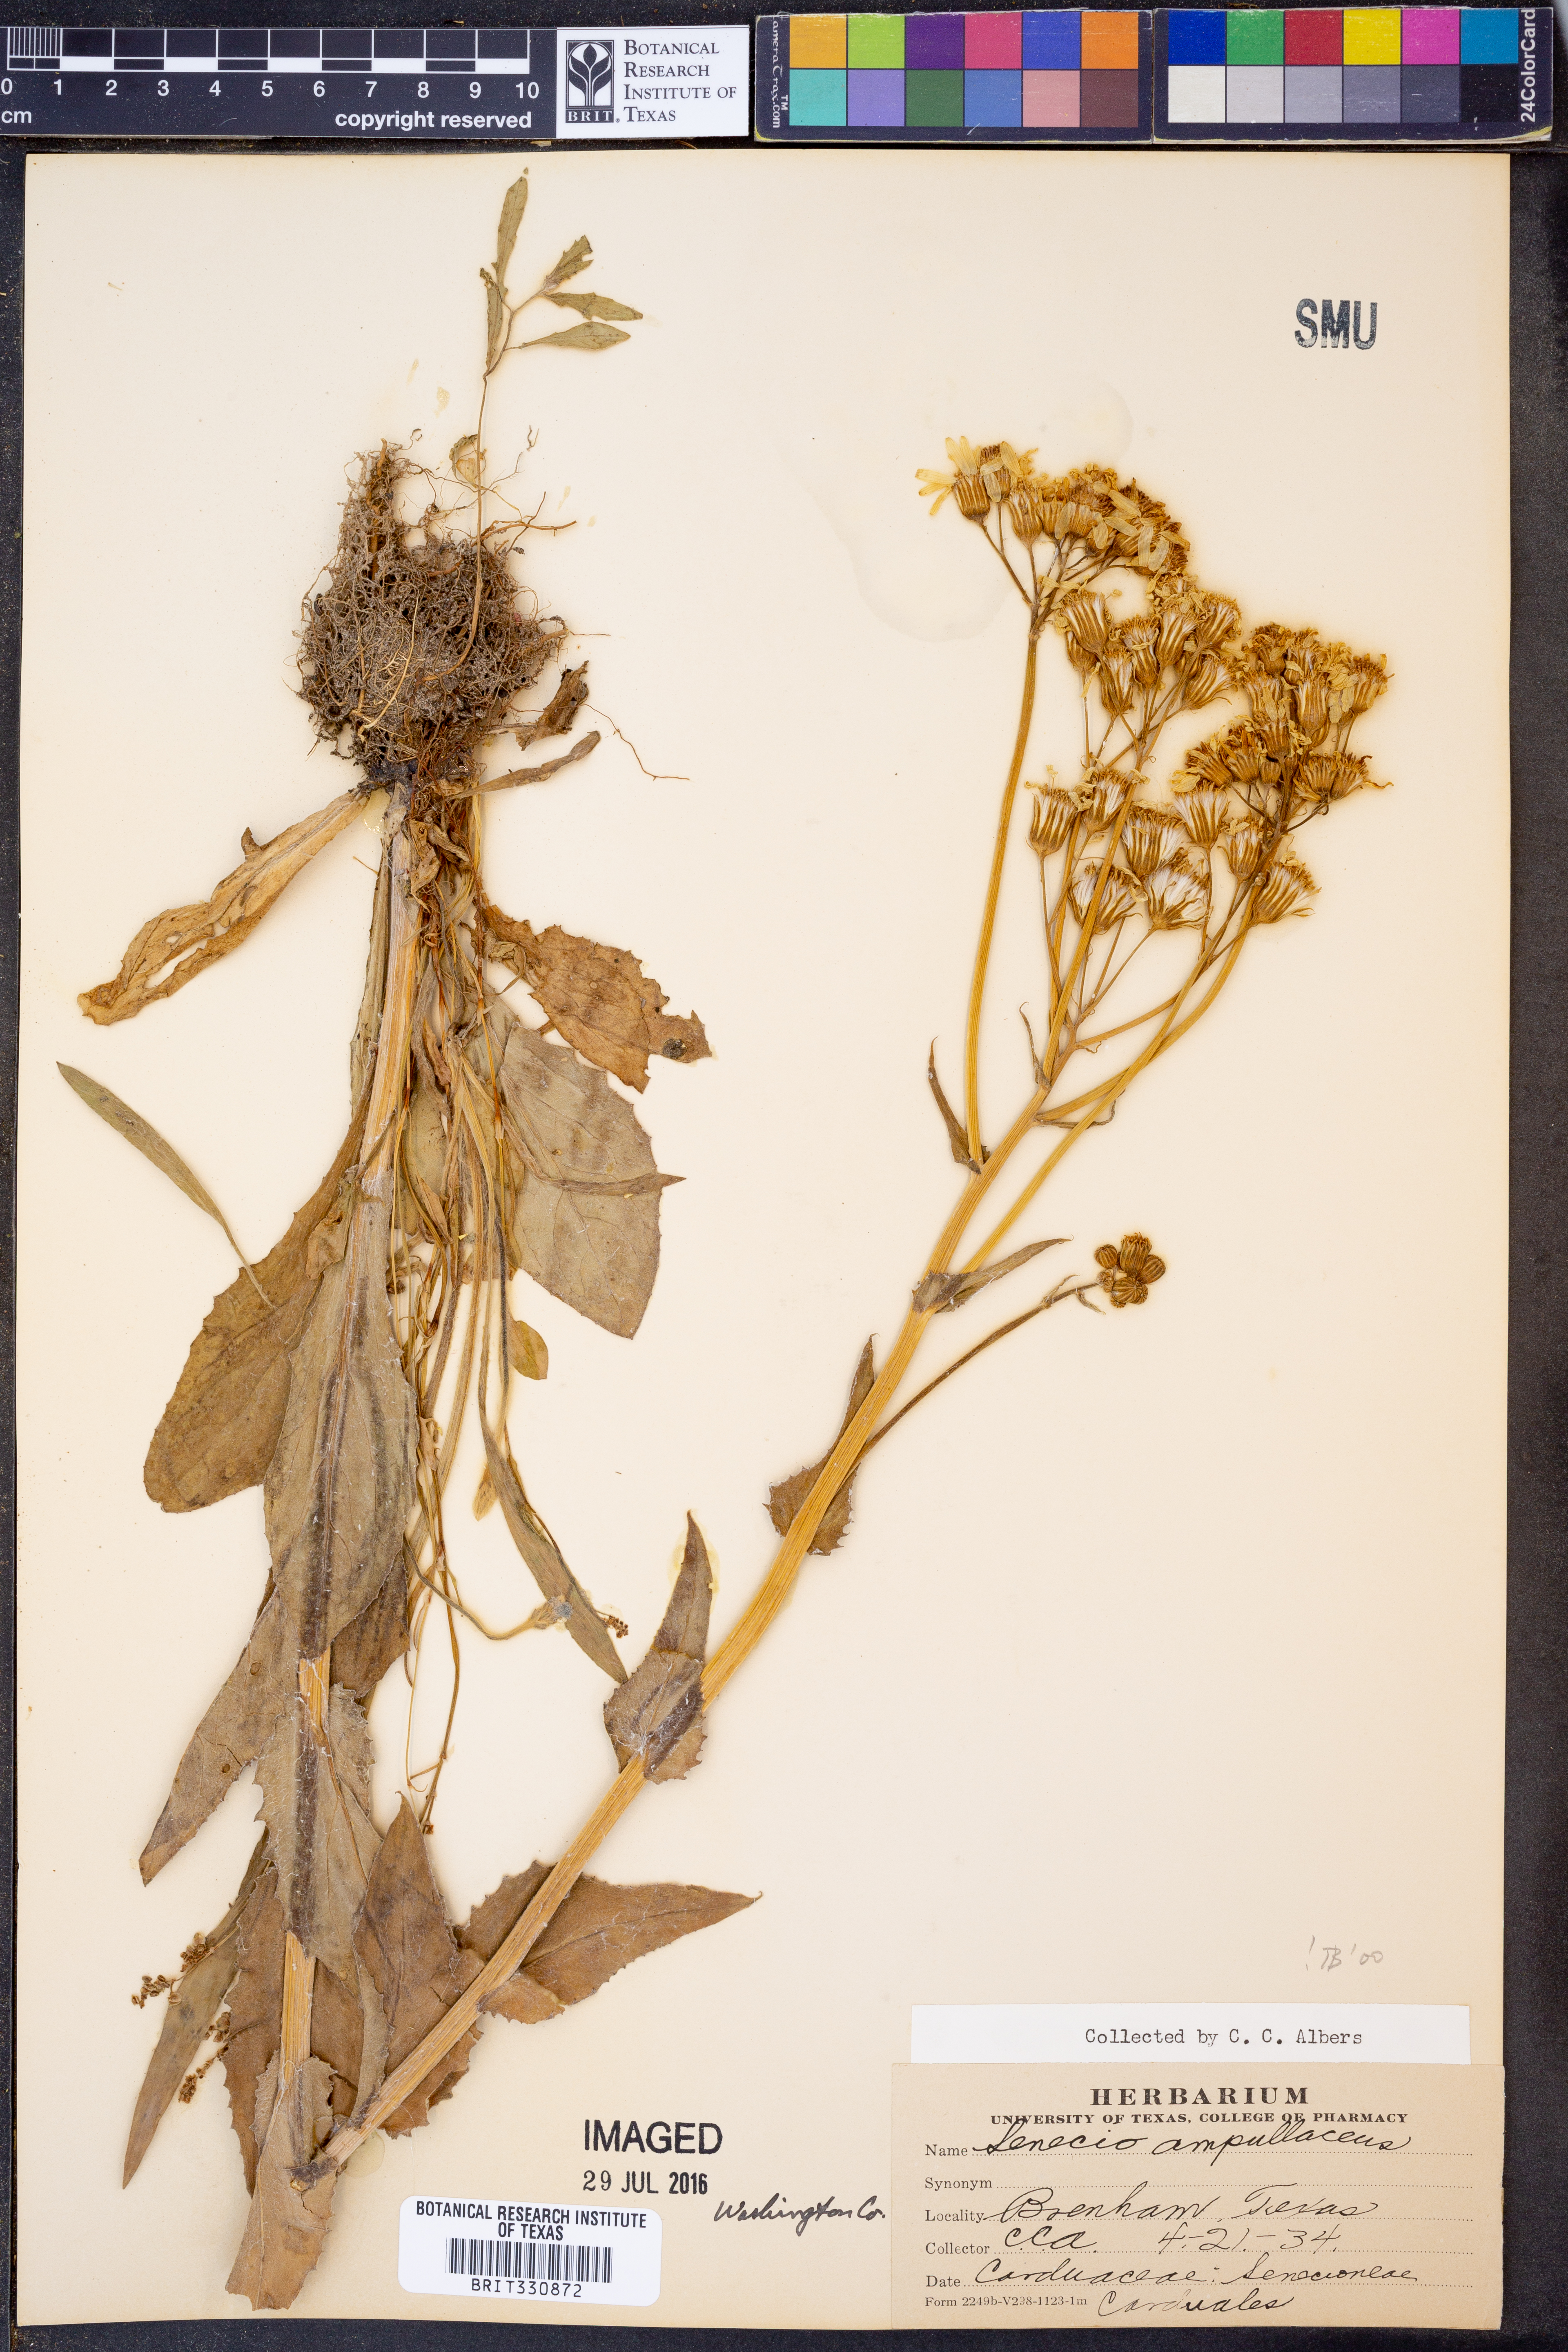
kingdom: Plantae
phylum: Tracheophyta
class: Magnoliopsida
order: Asterales
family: Asteraceae
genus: Senecio
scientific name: Senecio ampullaceus
